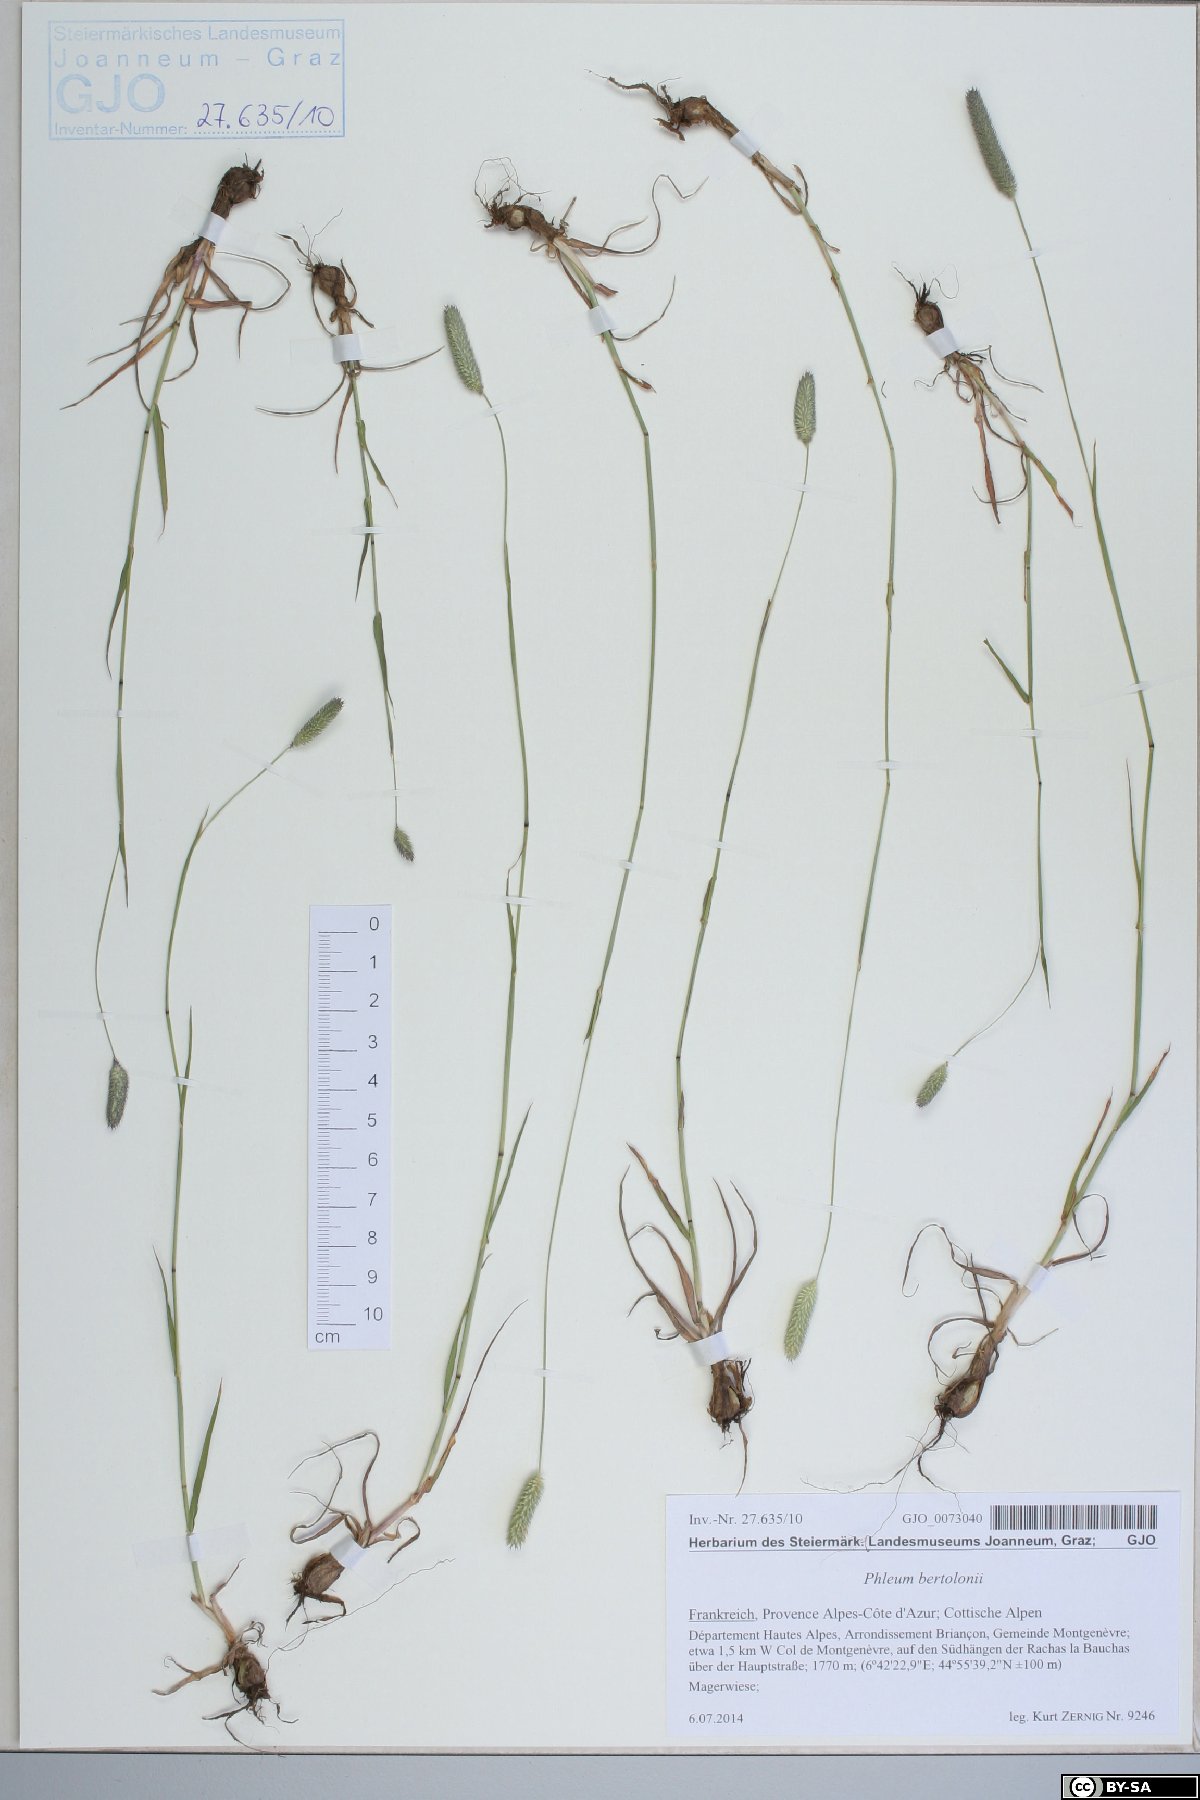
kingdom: Plantae
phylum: Tracheophyta
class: Liliopsida
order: Poales
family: Poaceae
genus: Phleum
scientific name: Phleum bertolonii
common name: Smaller cat's-tail
